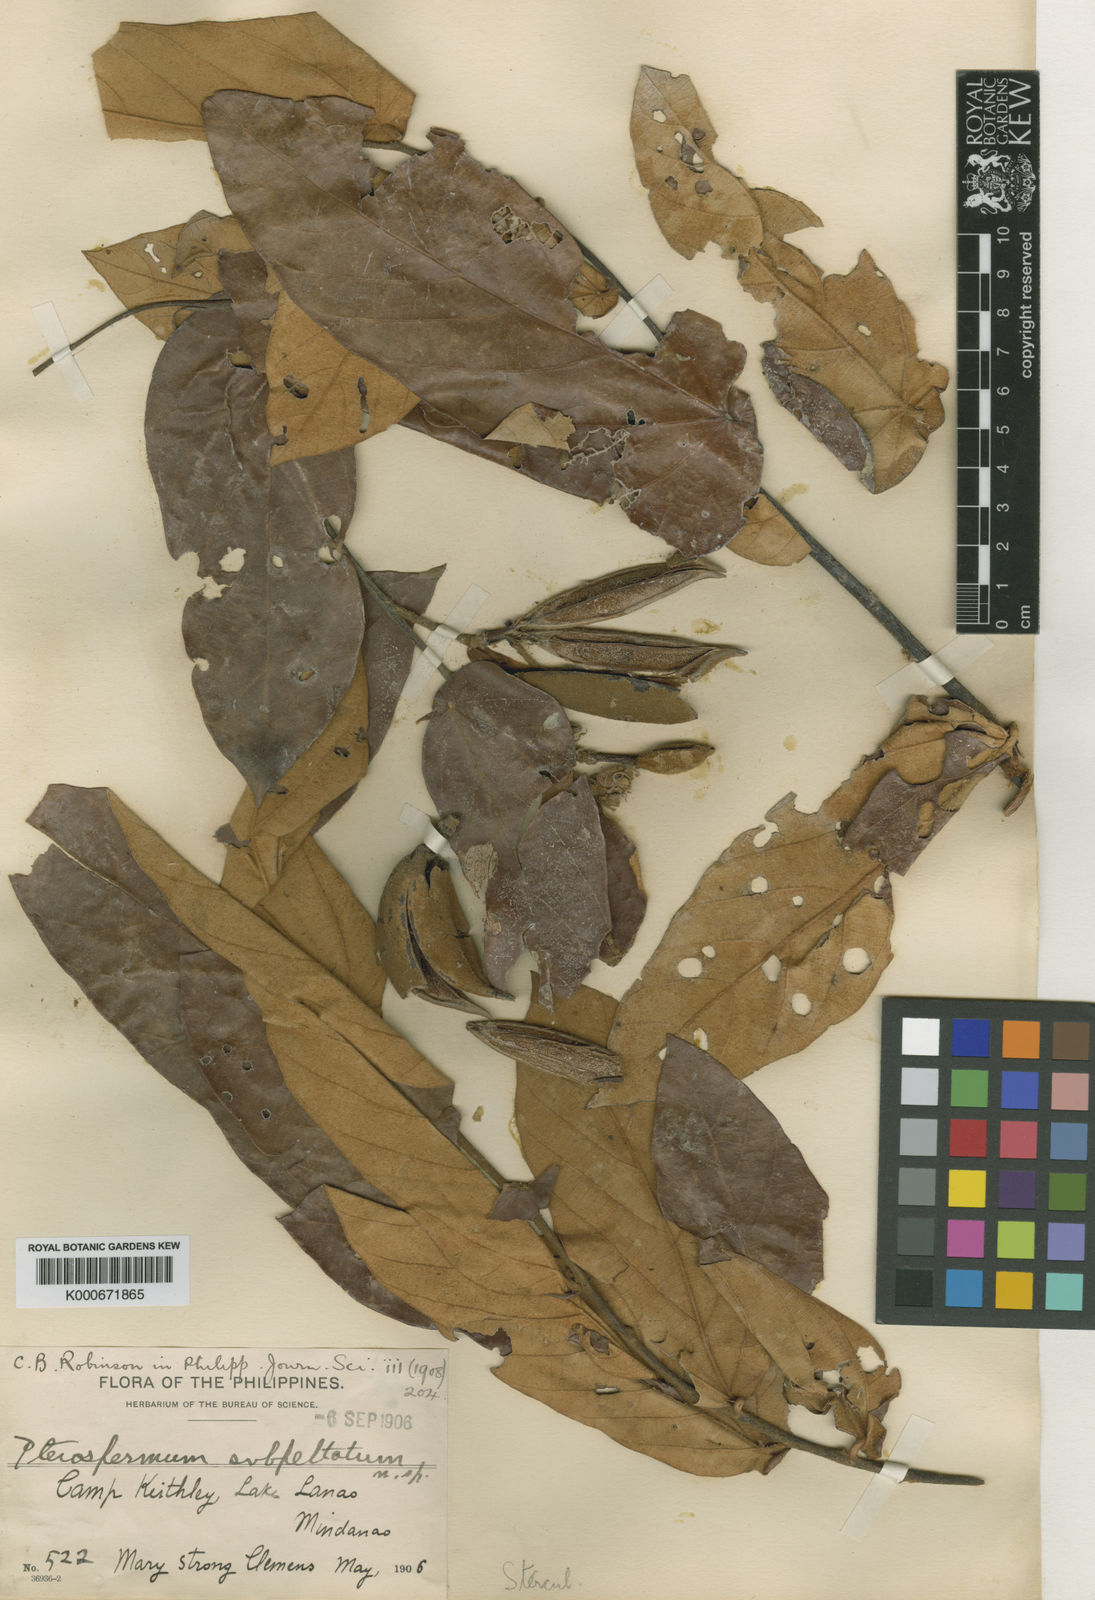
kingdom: Plantae
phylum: Tracheophyta
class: Magnoliopsida
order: Malvales
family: Malvaceae
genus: Pterospermum
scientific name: Pterospermum subpeltatum
